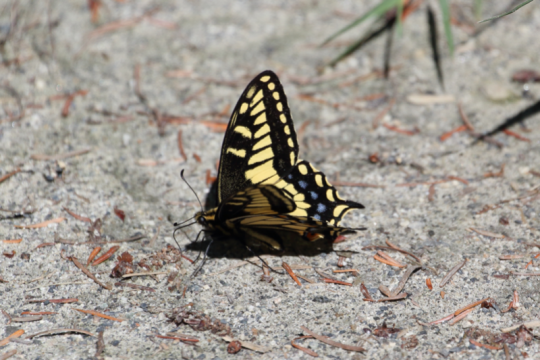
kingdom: Animalia
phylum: Arthropoda
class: Insecta
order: Lepidoptera
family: Papilionidae
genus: Papilio
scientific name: Papilio zelicaon
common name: Anise Swallowtail
